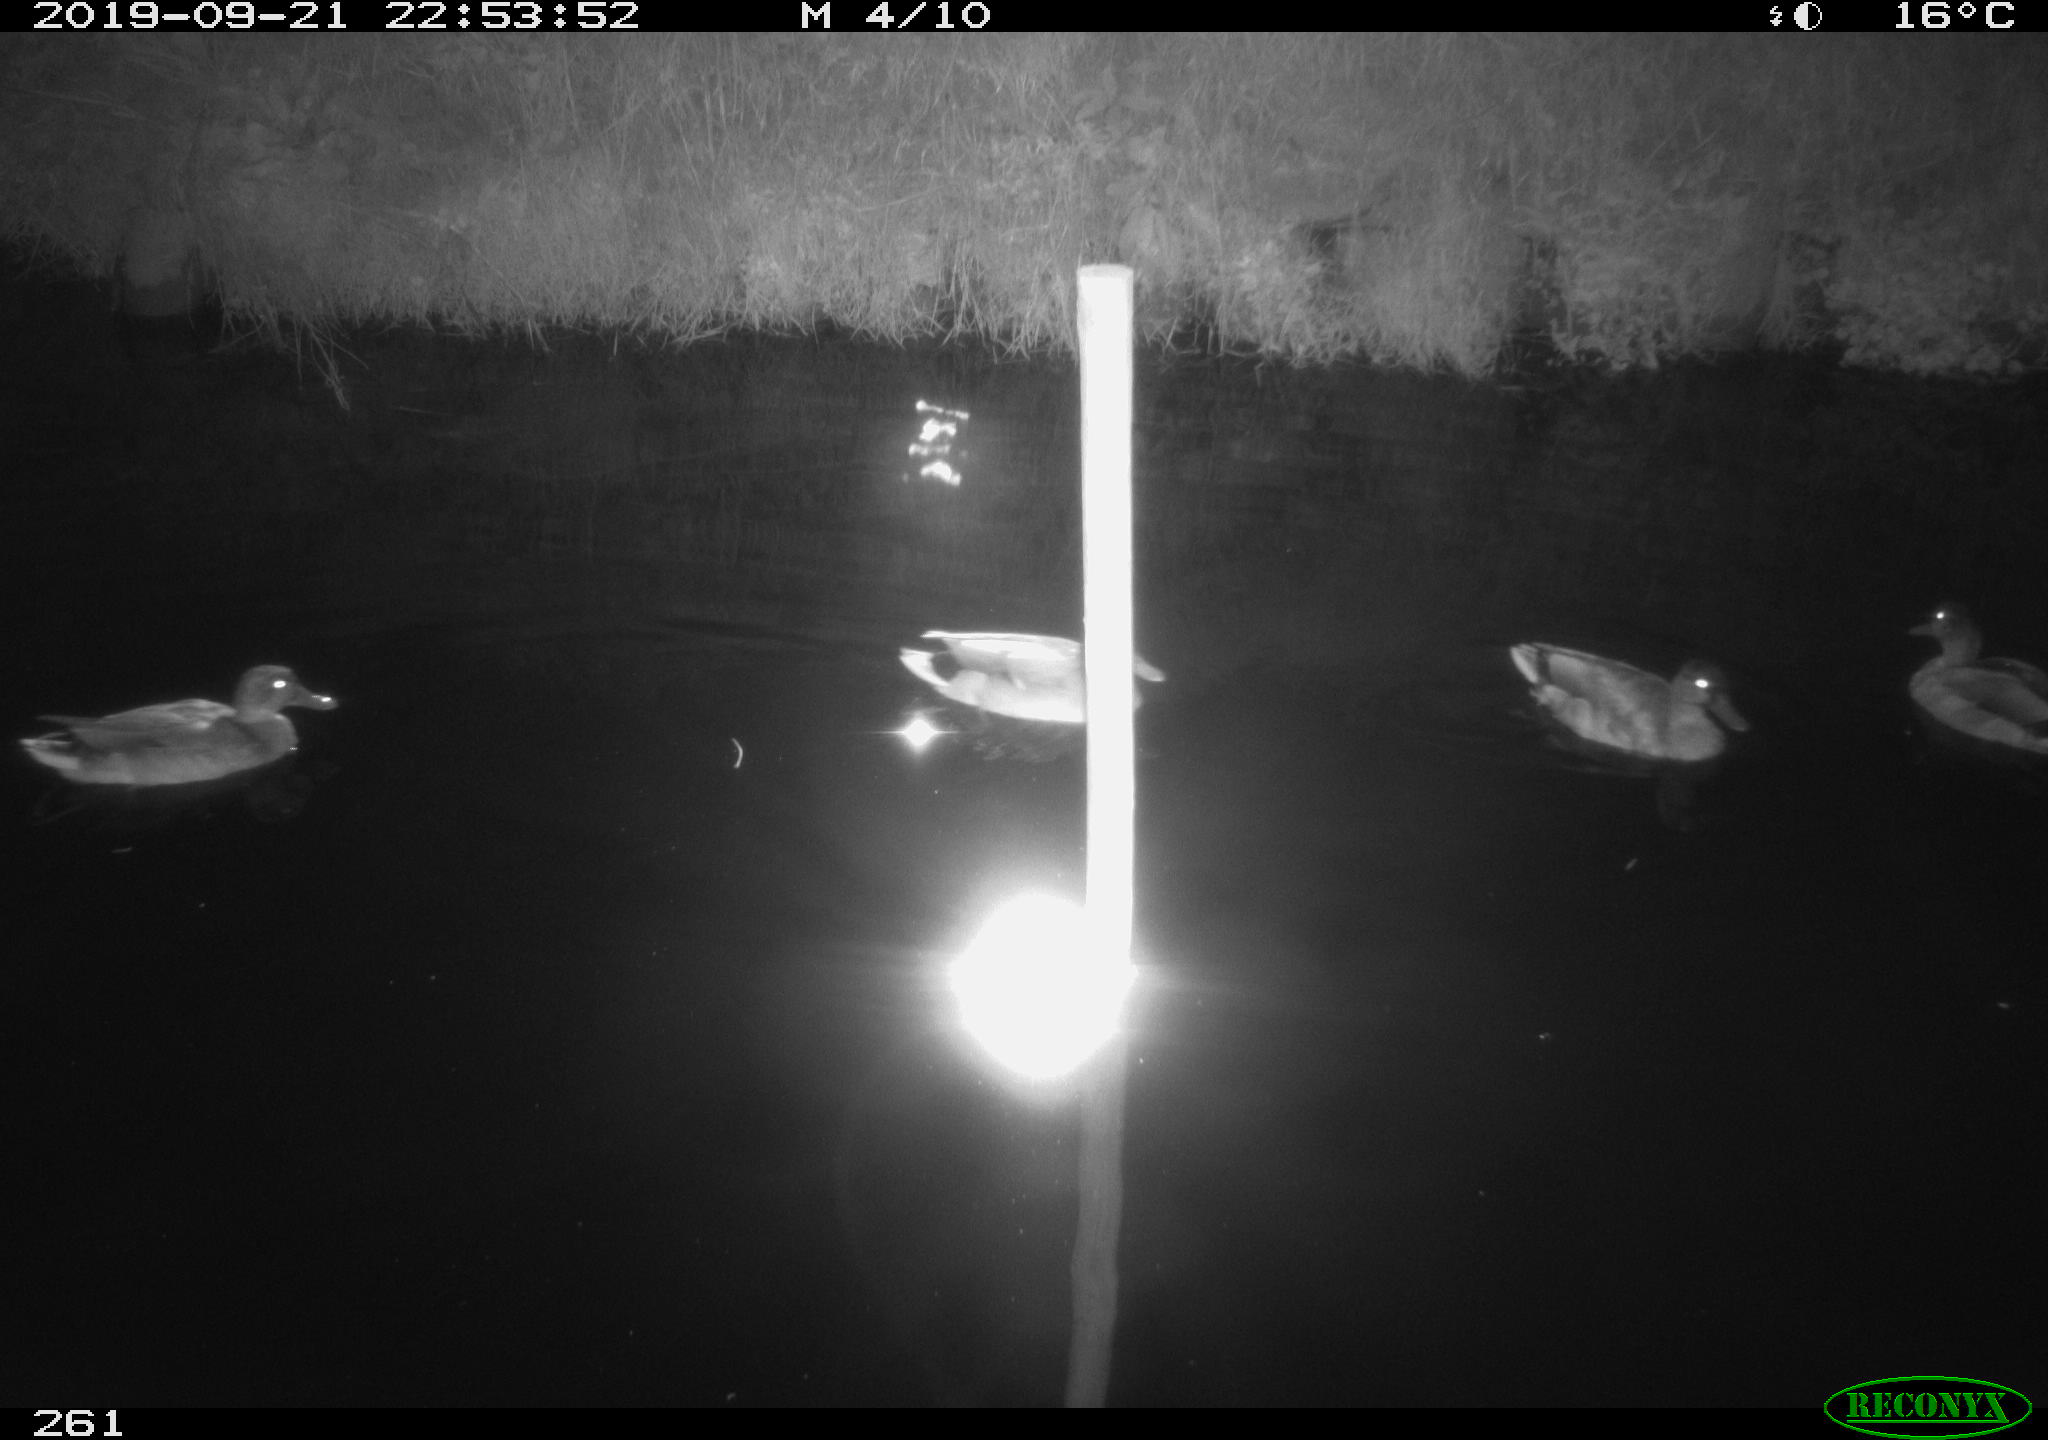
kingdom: Animalia
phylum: Chordata
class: Aves
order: Anseriformes
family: Anatidae
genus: Anas
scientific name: Anas platyrhynchos
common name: Mallard
